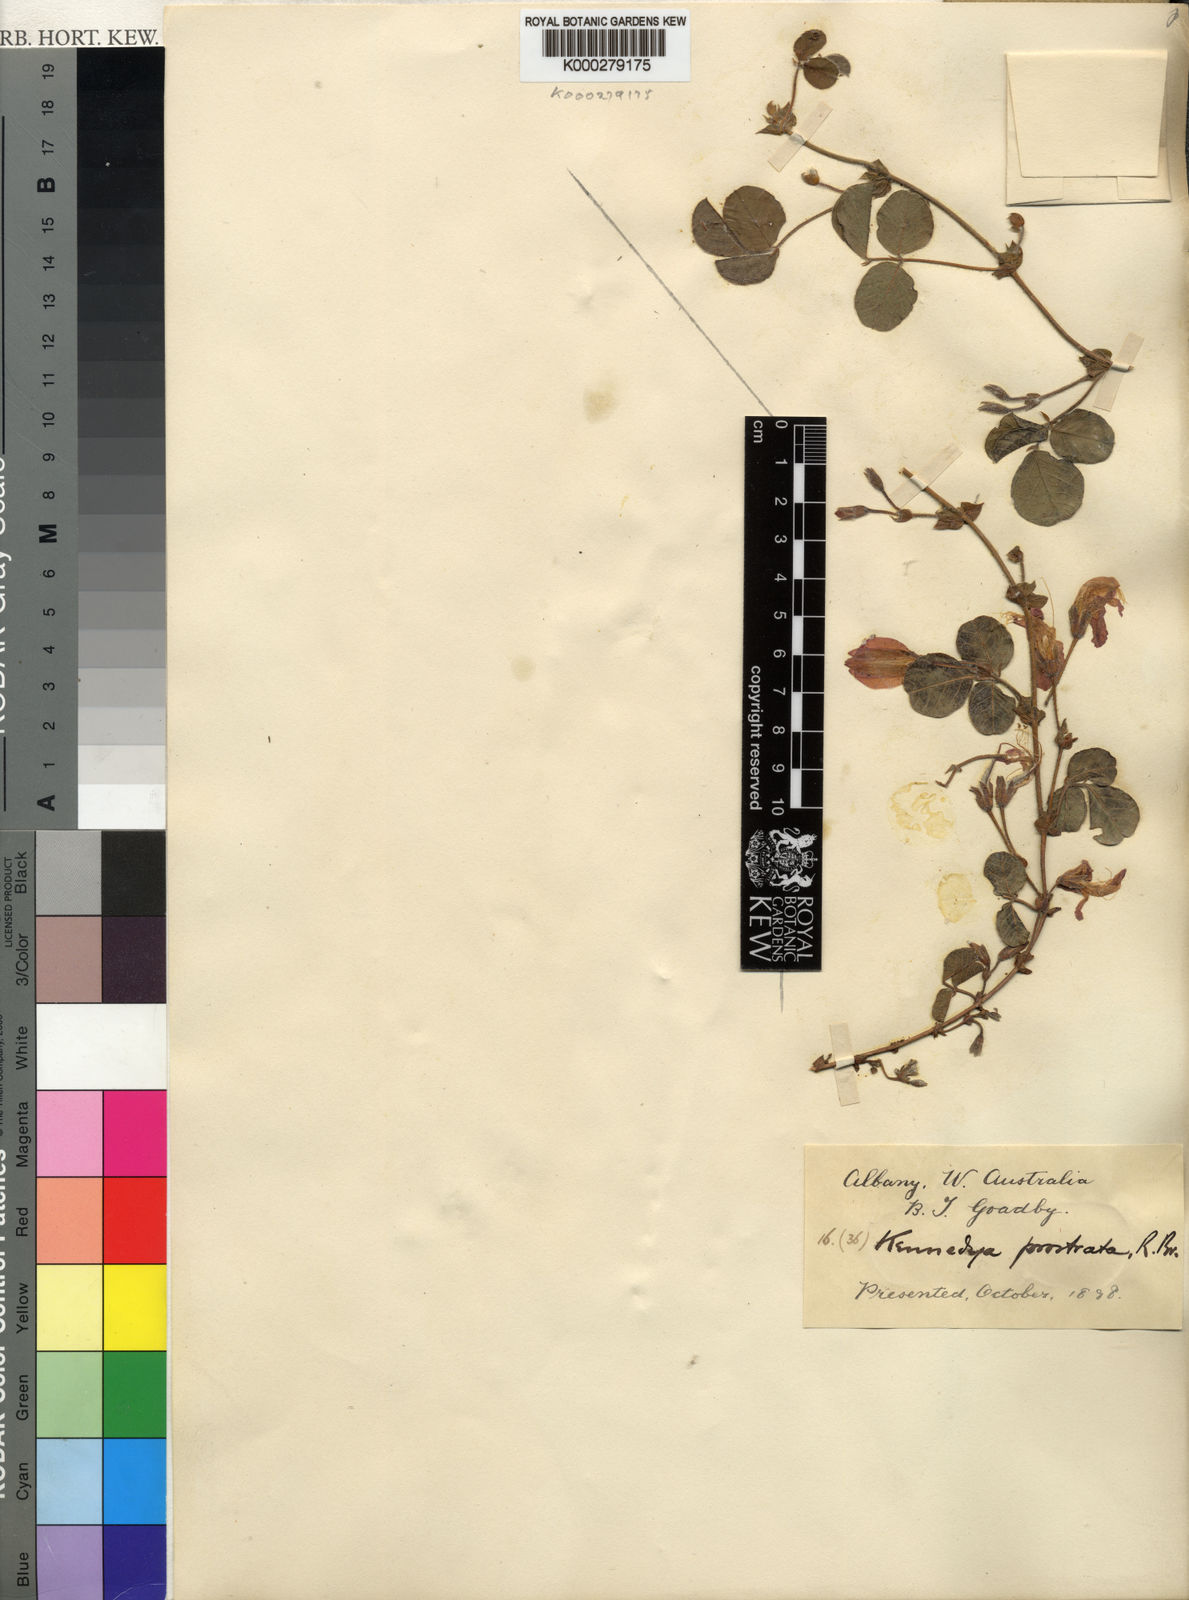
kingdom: Plantae
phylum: Tracheophyta
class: Magnoliopsida
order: Fabales
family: Fabaceae
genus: Kennedia
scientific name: Kennedia prostrata
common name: Running-postman
